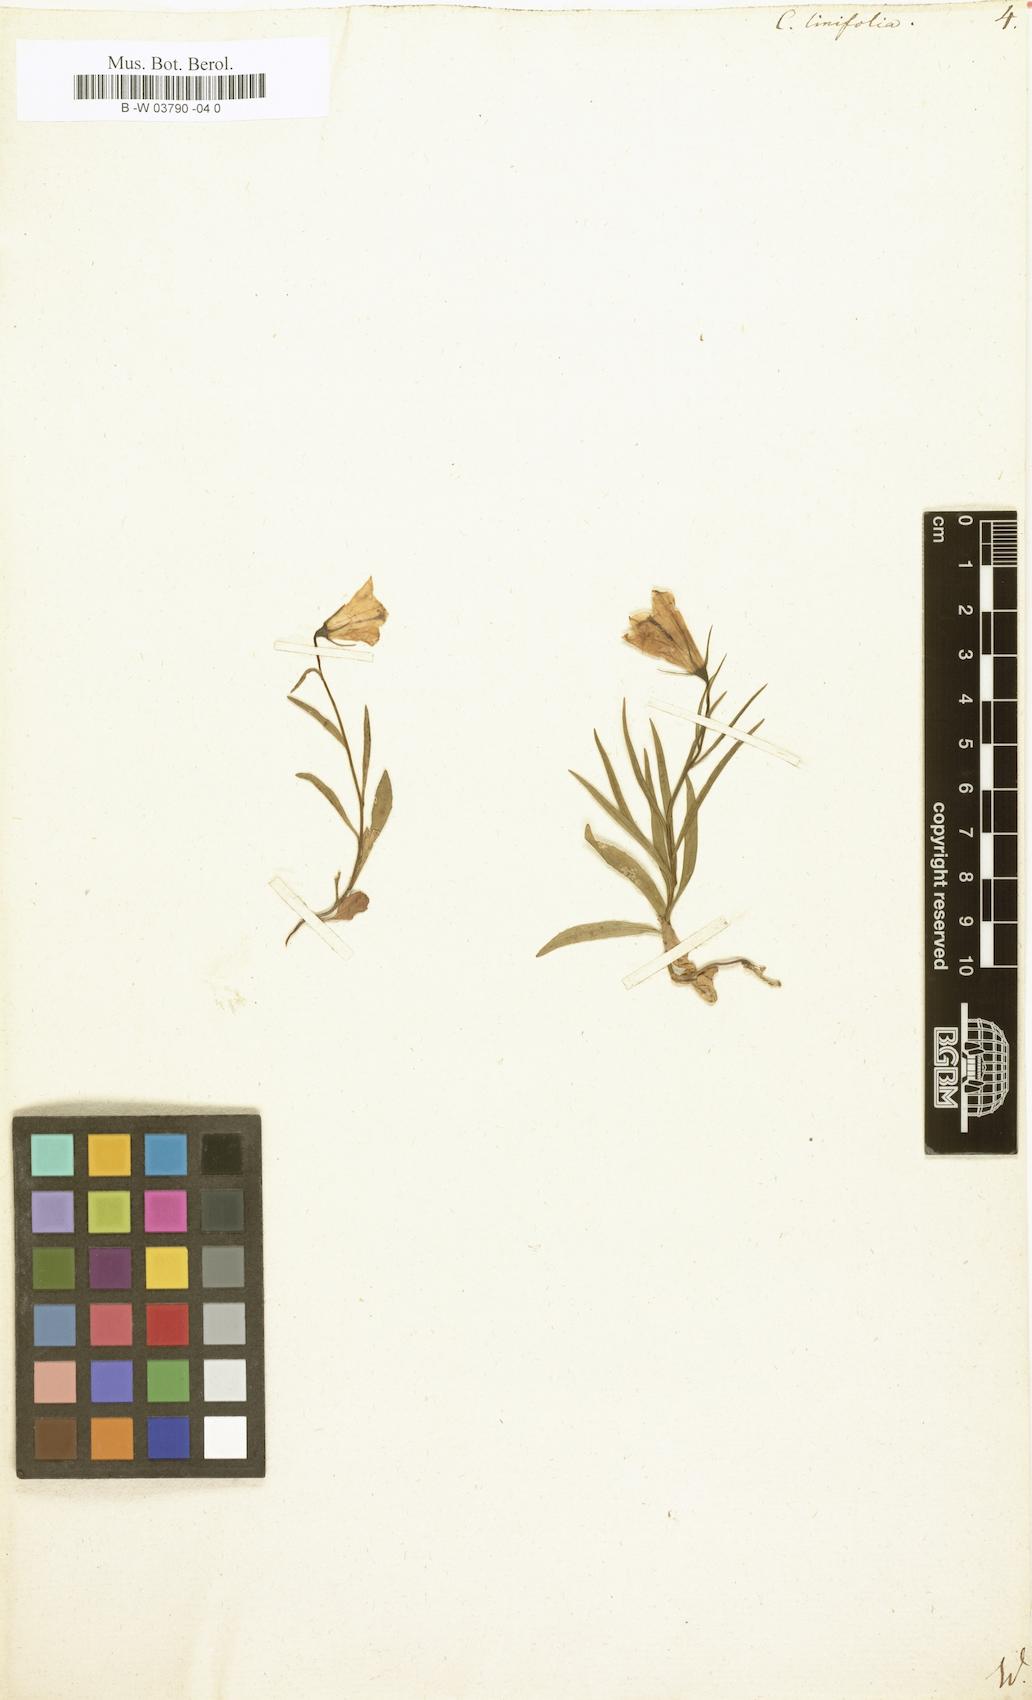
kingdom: Plantae
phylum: Tracheophyta
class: Magnoliopsida
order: Asterales
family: Campanulaceae
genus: Campanula
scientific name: Campanula
